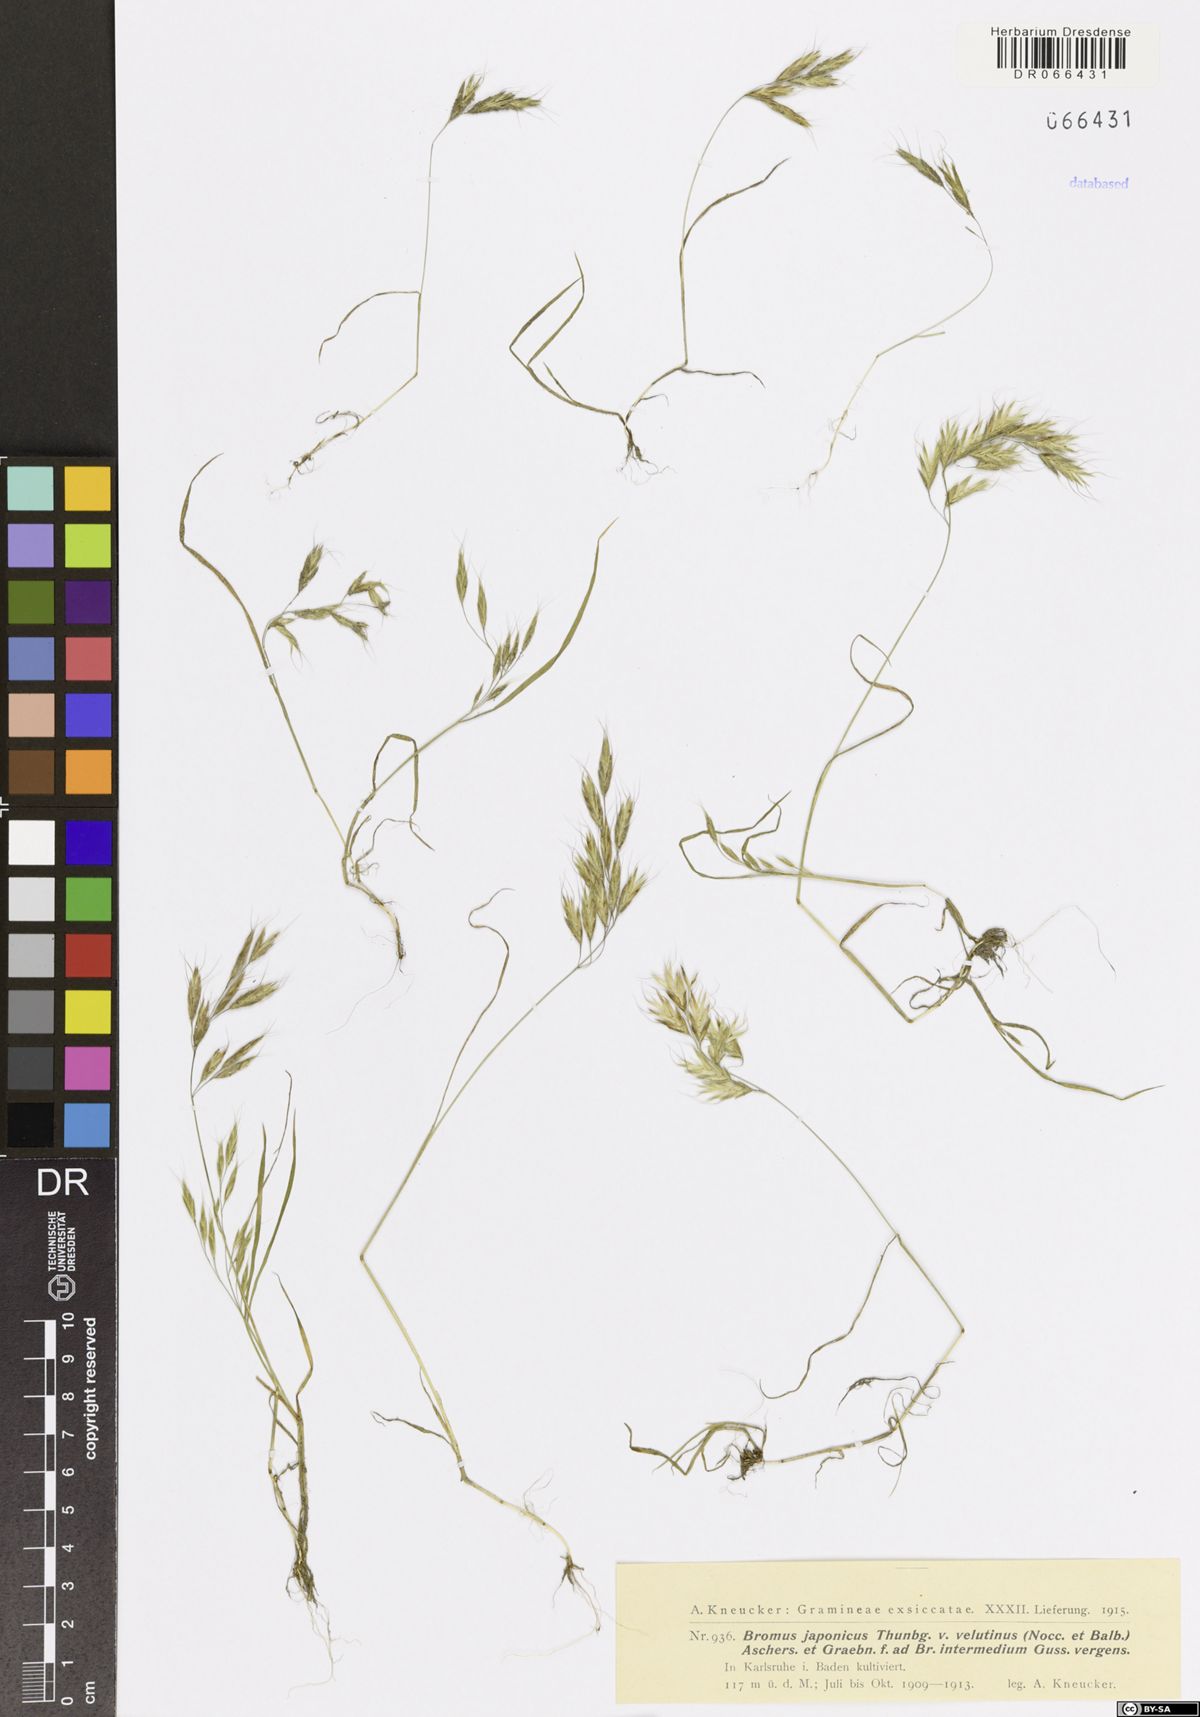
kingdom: Plantae
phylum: Tracheophyta
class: Liliopsida
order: Poales
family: Poaceae
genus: Bromus
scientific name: Bromus japonicus
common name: Japanese brome
